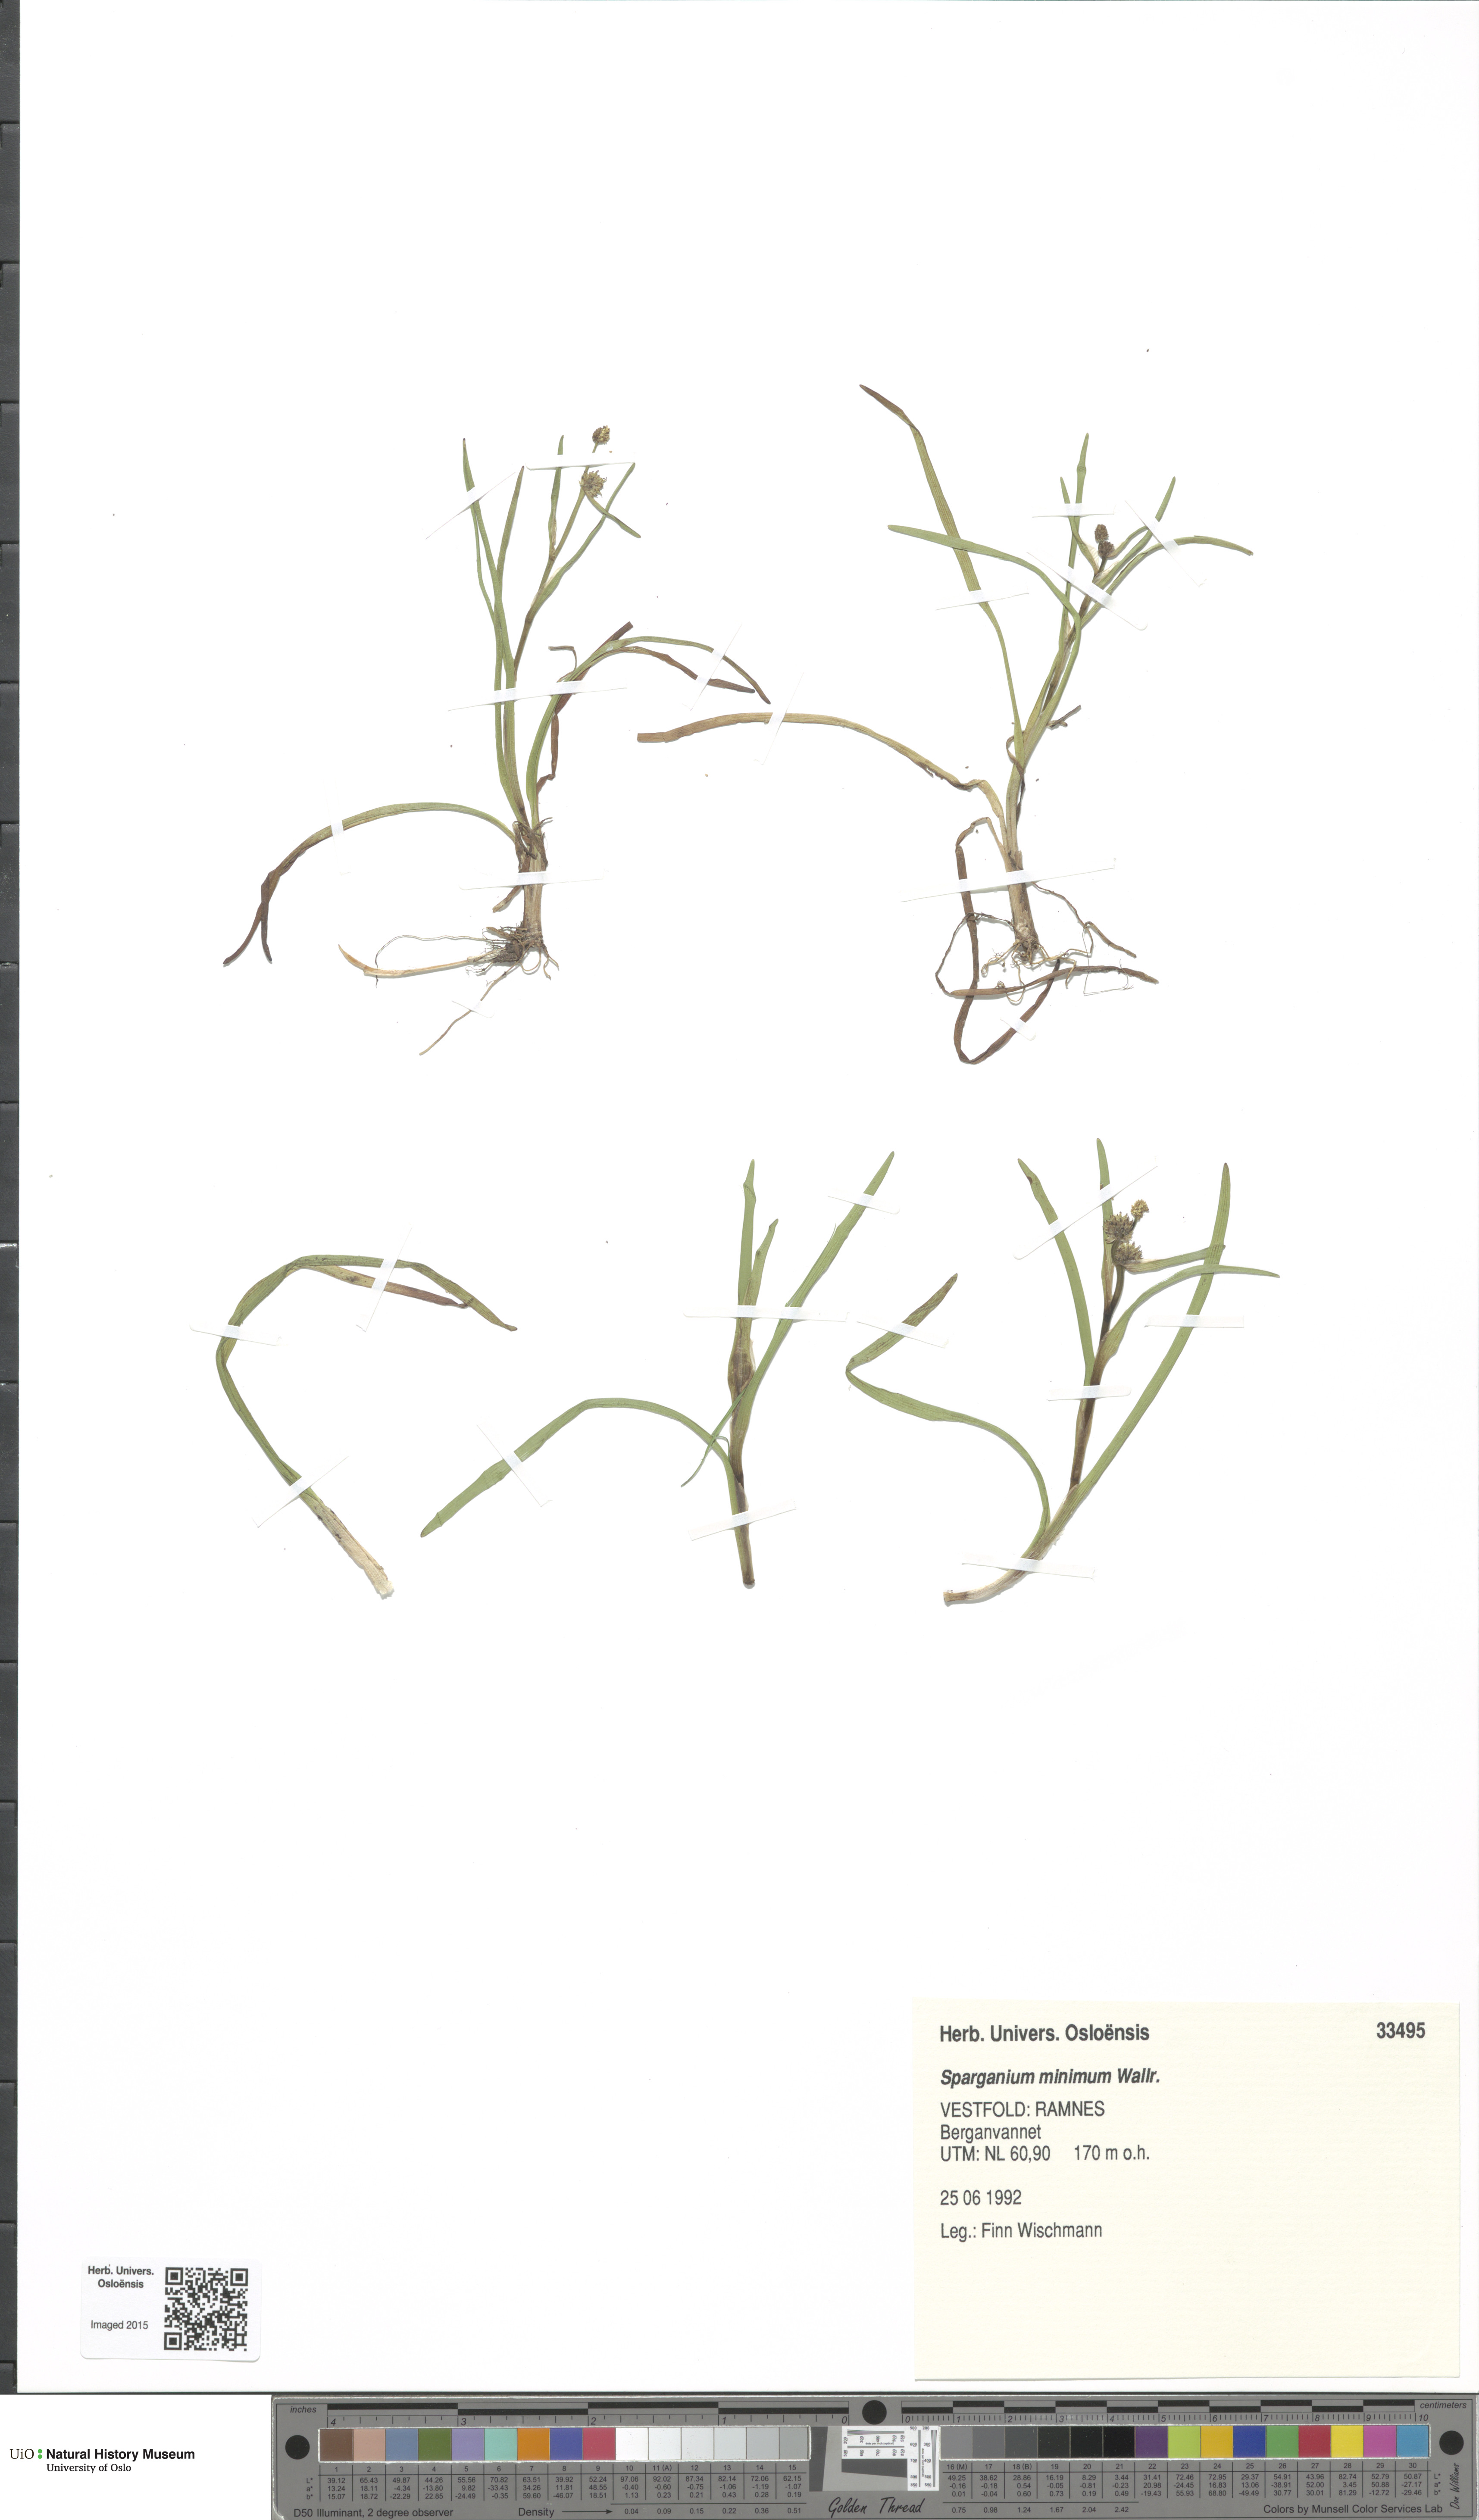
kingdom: Plantae
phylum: Tracheophyta
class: Liliopsida
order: Poales
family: Typhaceae
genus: Sparganium
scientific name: Sparganium natans
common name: Least bur-reed
